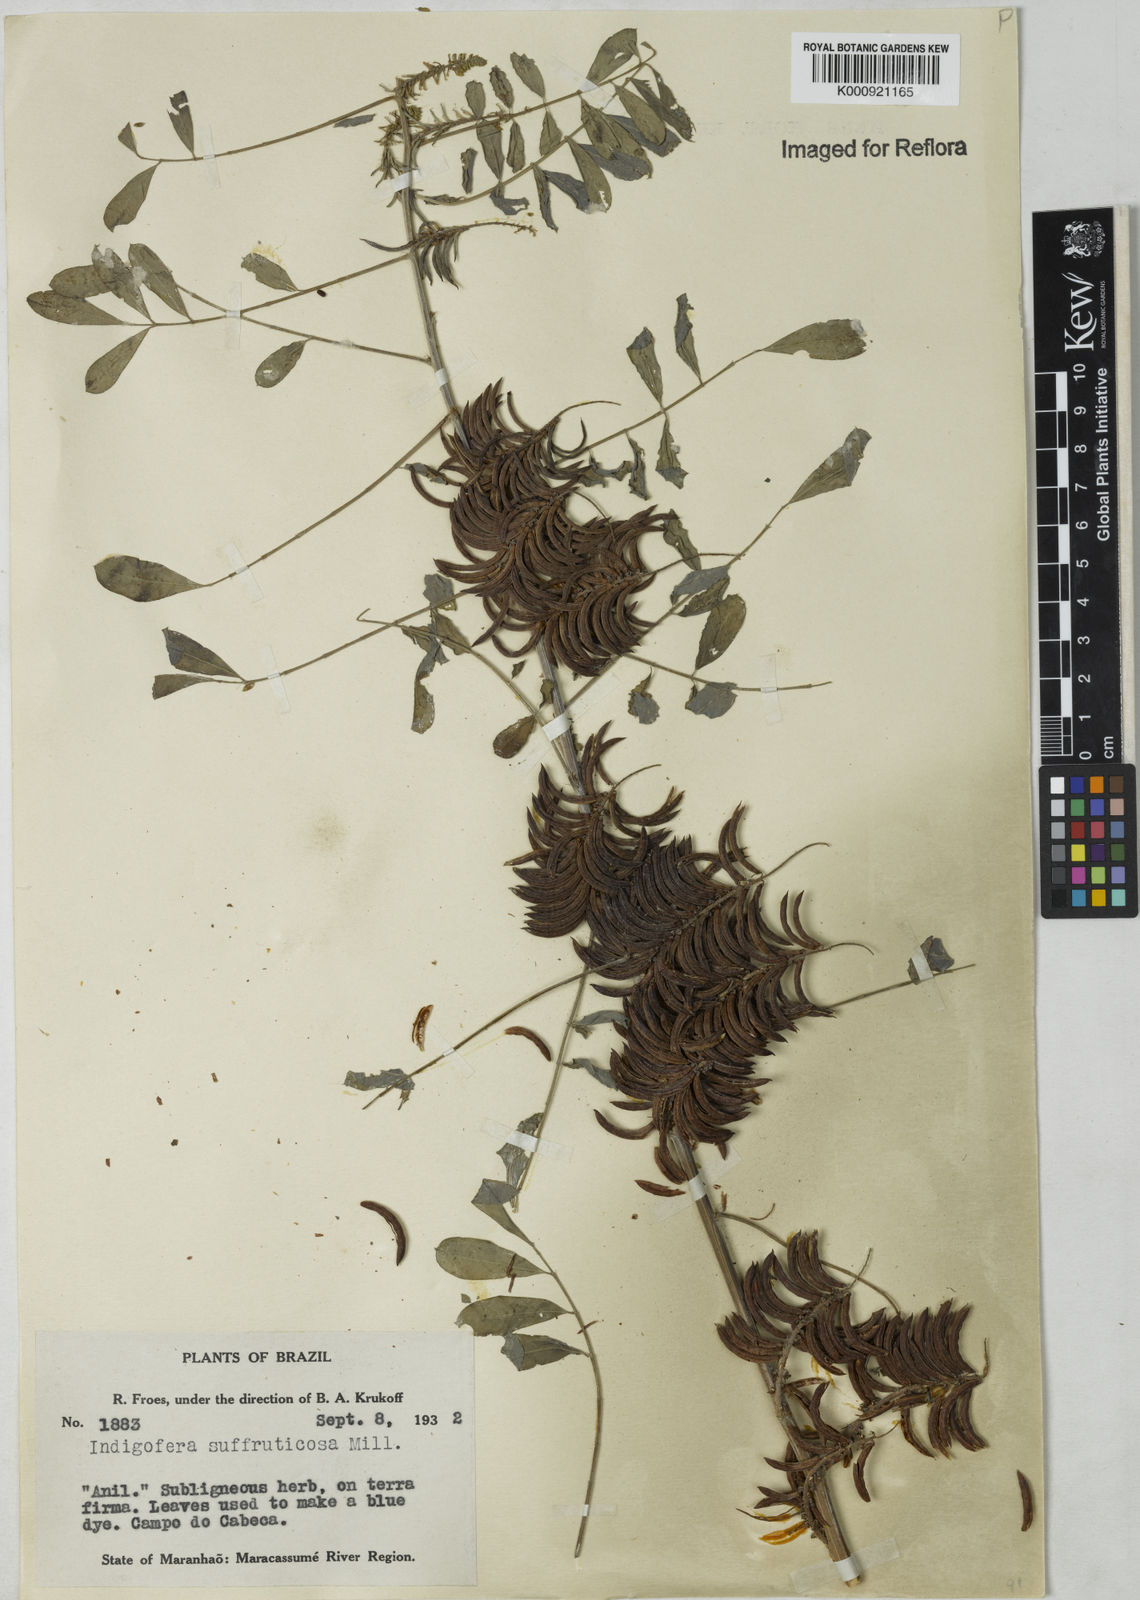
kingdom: Plantae
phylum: Tracheophyta
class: Magnoliopsida
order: Fabales
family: Fabaceae
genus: Indigofera
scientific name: Indigofera
